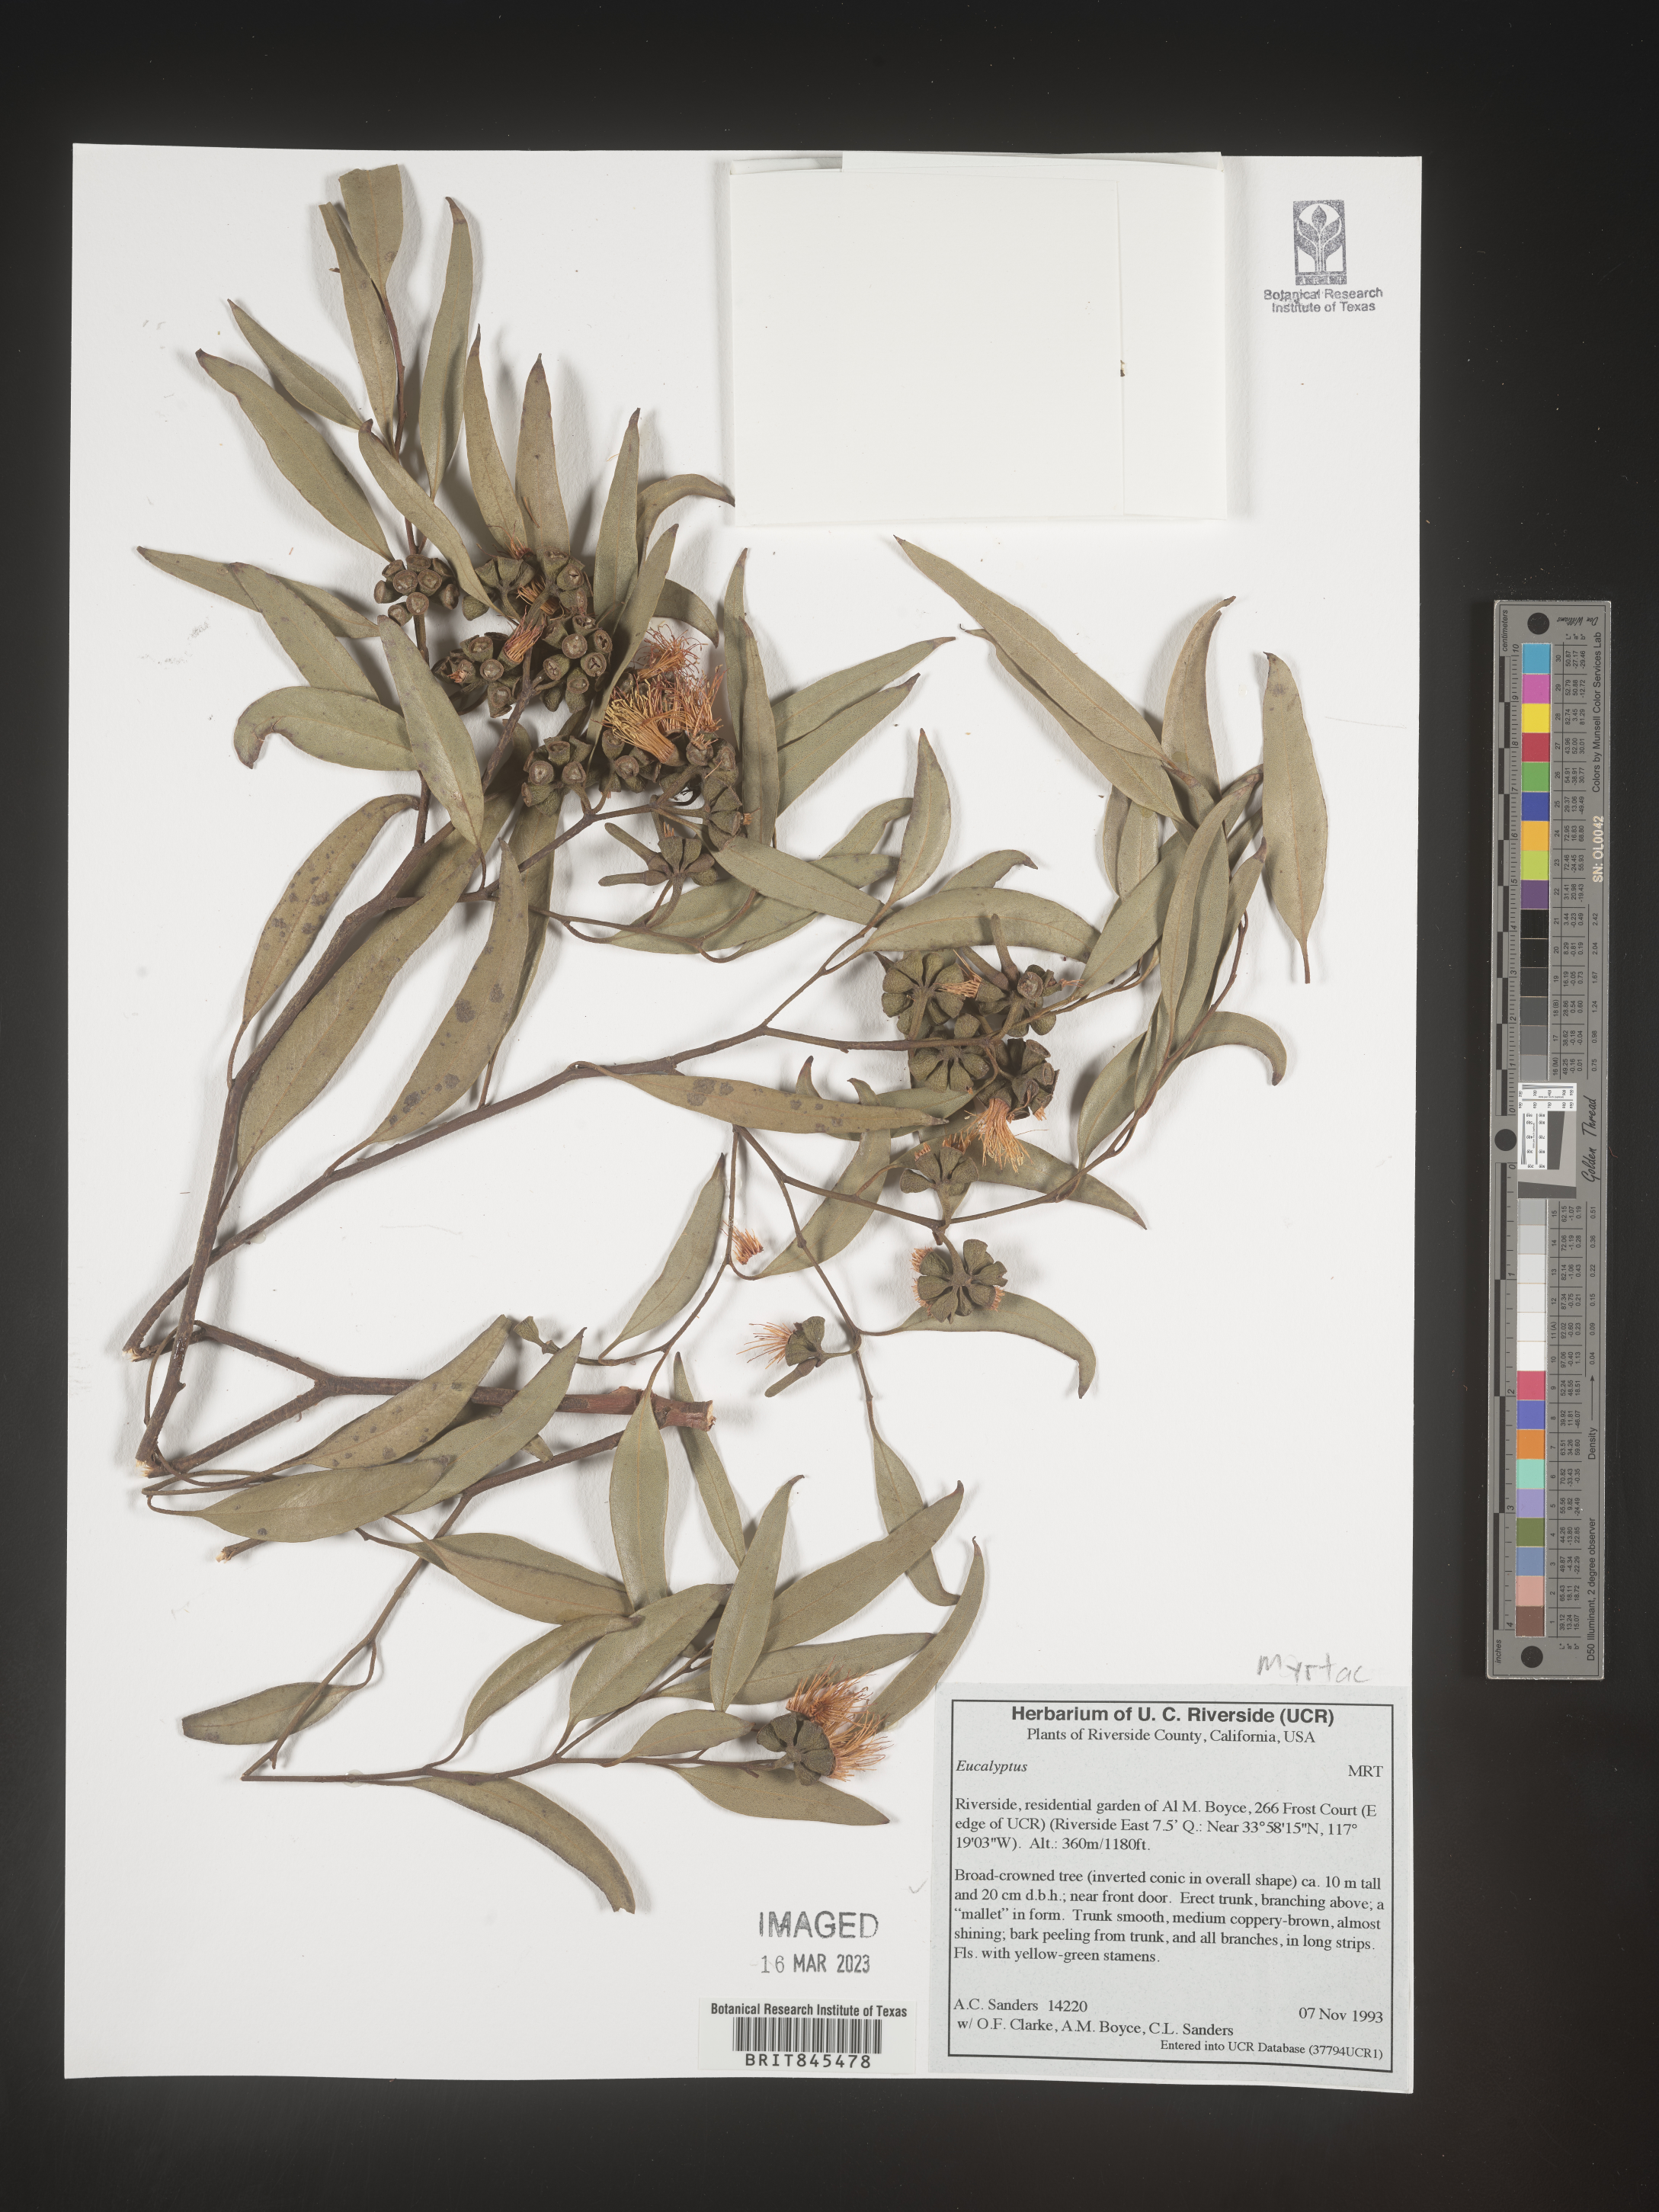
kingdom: Plantae
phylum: Tracheophyta
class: Magnoliopsida
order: Myrtales
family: Myrtaceae
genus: Eucalyptus
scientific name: Eucalyptus
